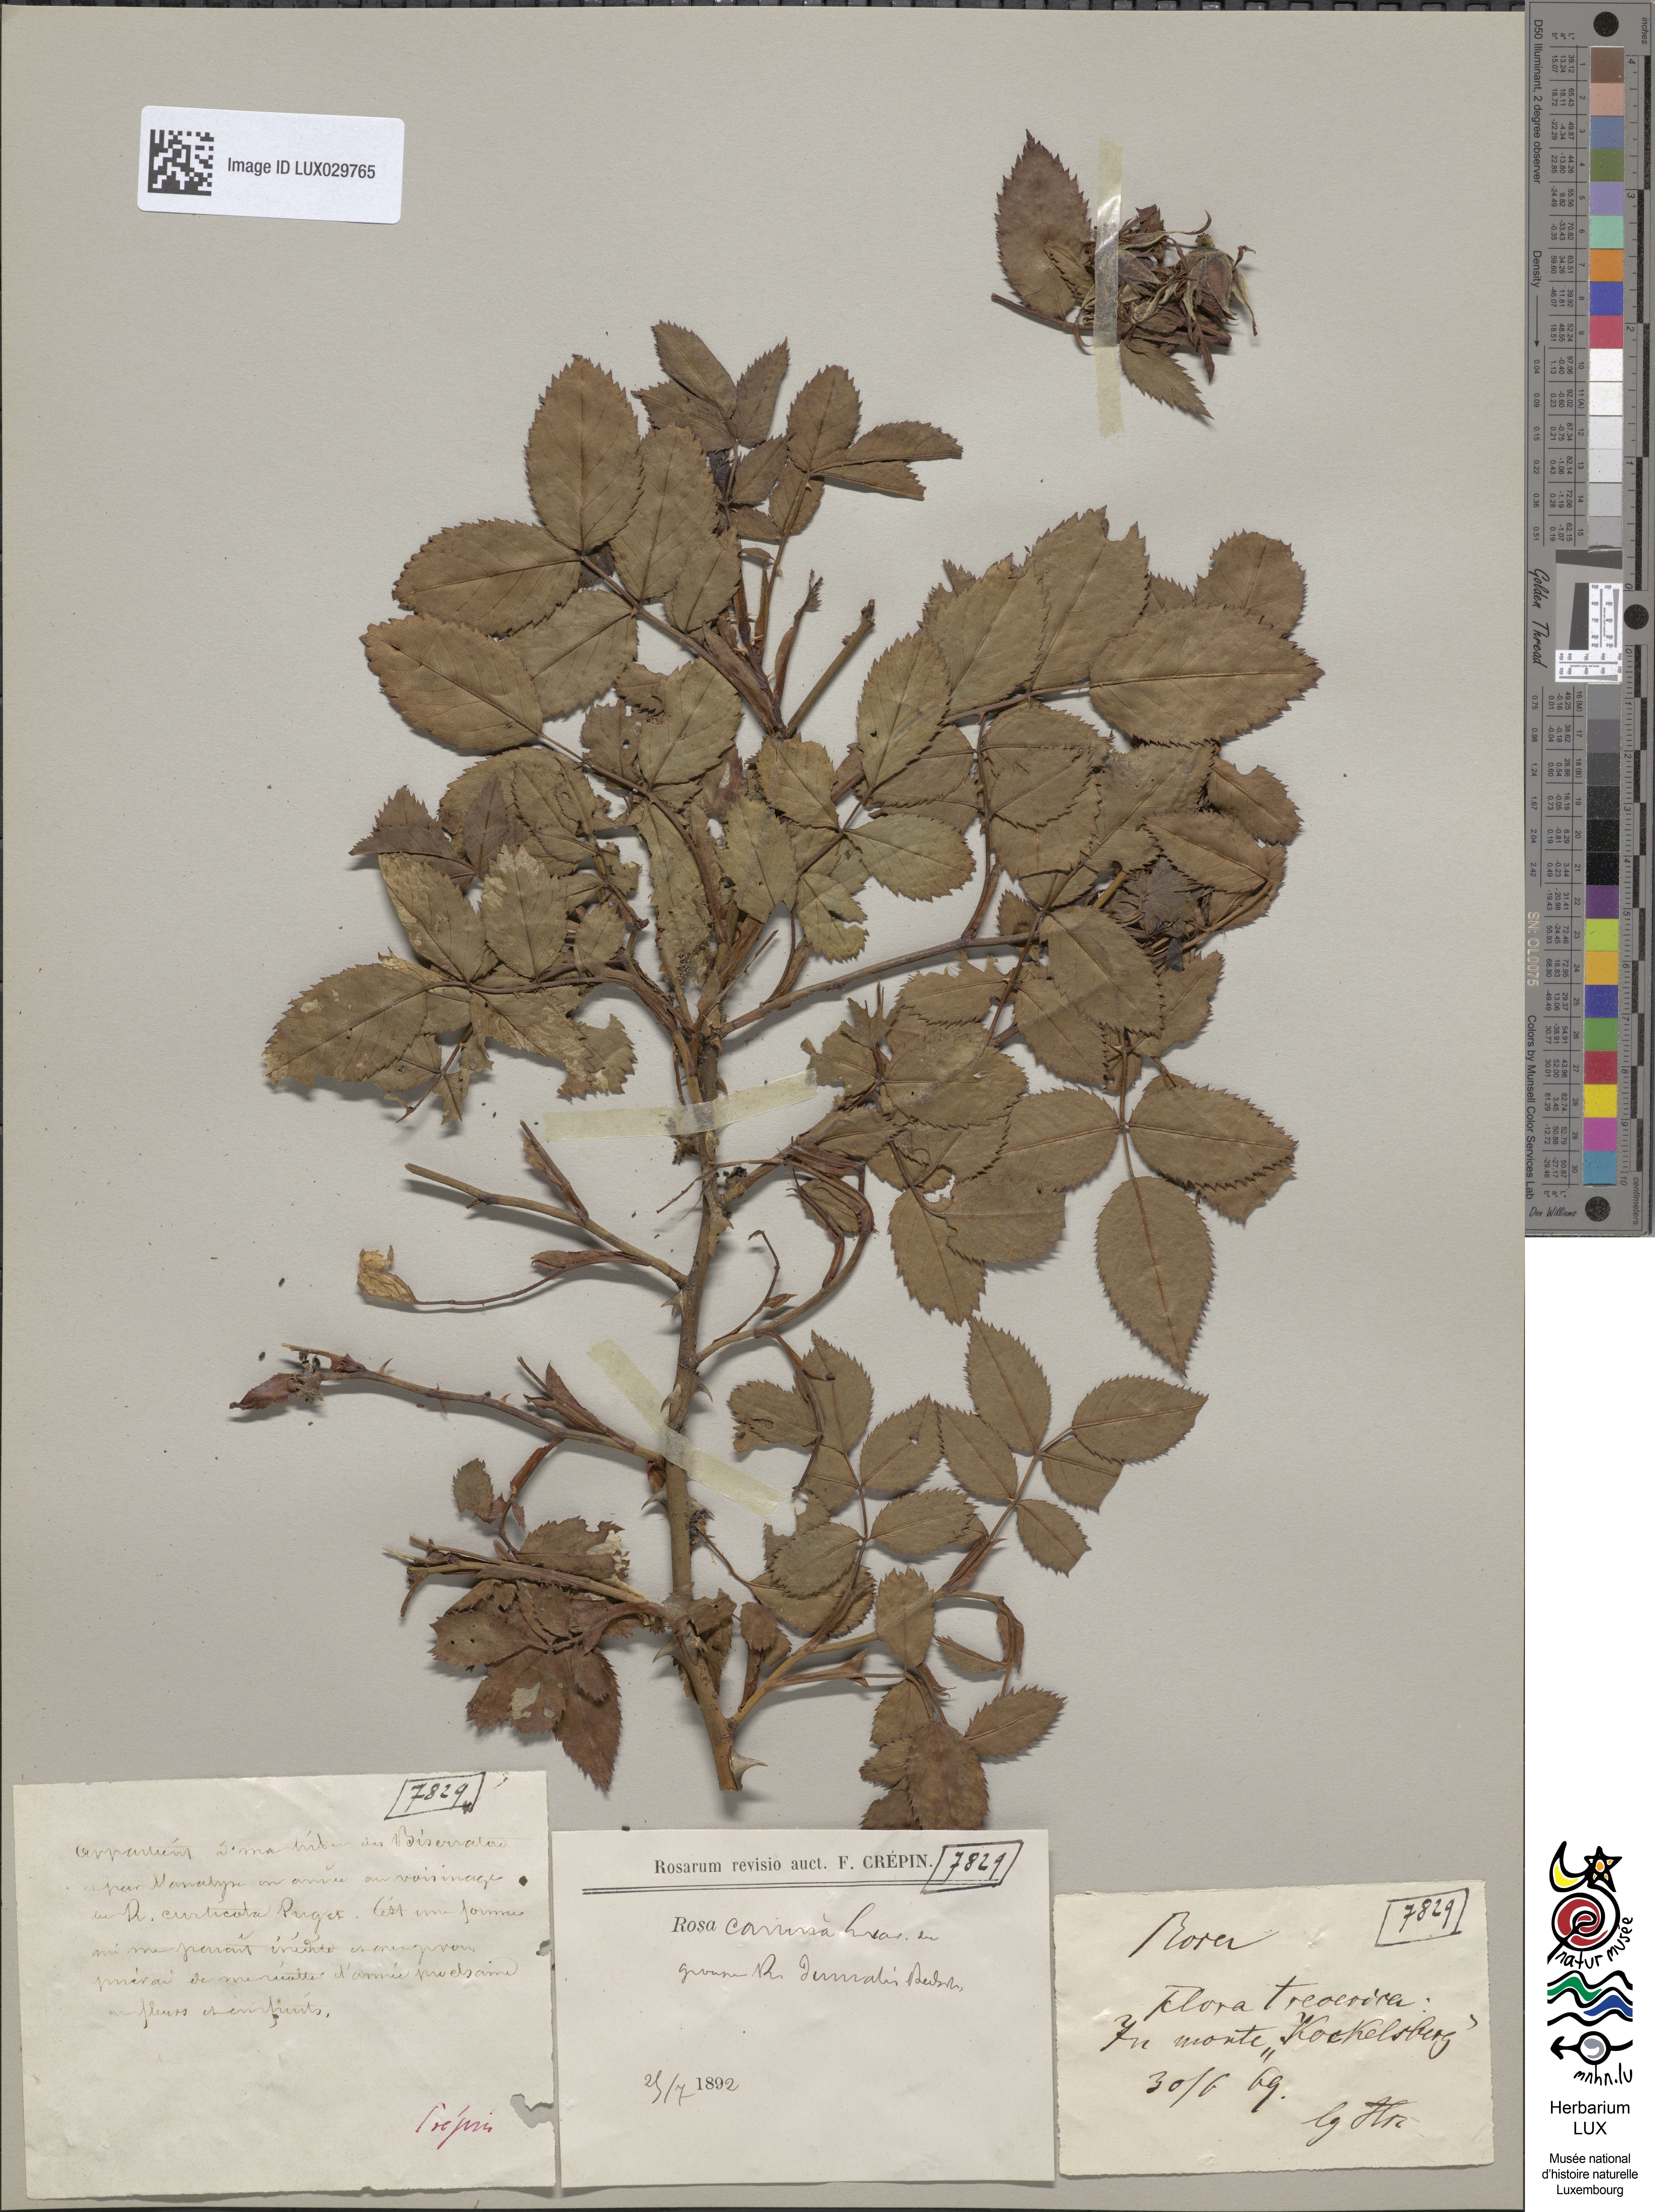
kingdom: Plantae
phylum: Tracheophyta
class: Magnoliopsida
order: Rosales
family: Rosaceae
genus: Rosa
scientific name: Rosa canina
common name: Dog rose
